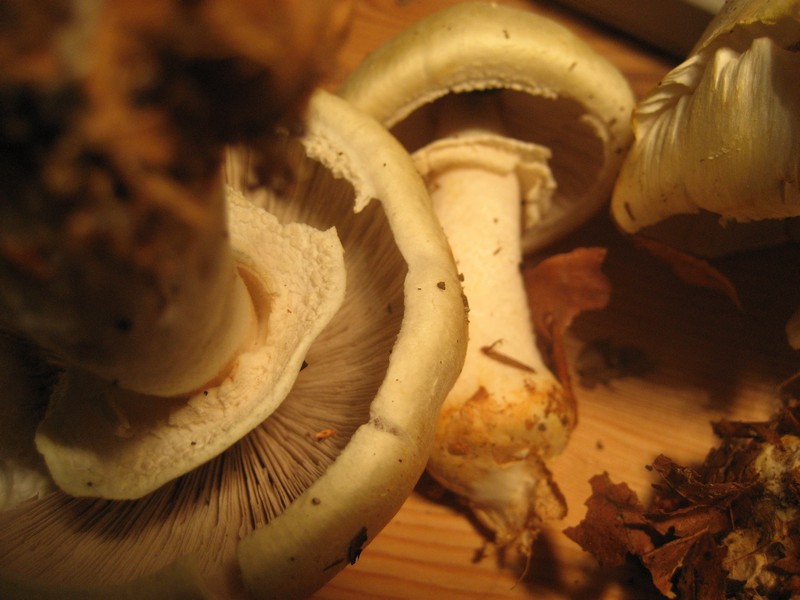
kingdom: Fungi
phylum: Basidiomycota
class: Agaricomycetes
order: Agaricales
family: Agaricaceae
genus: Agaricus
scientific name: Agaricus arvensis
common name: ager-champignon
